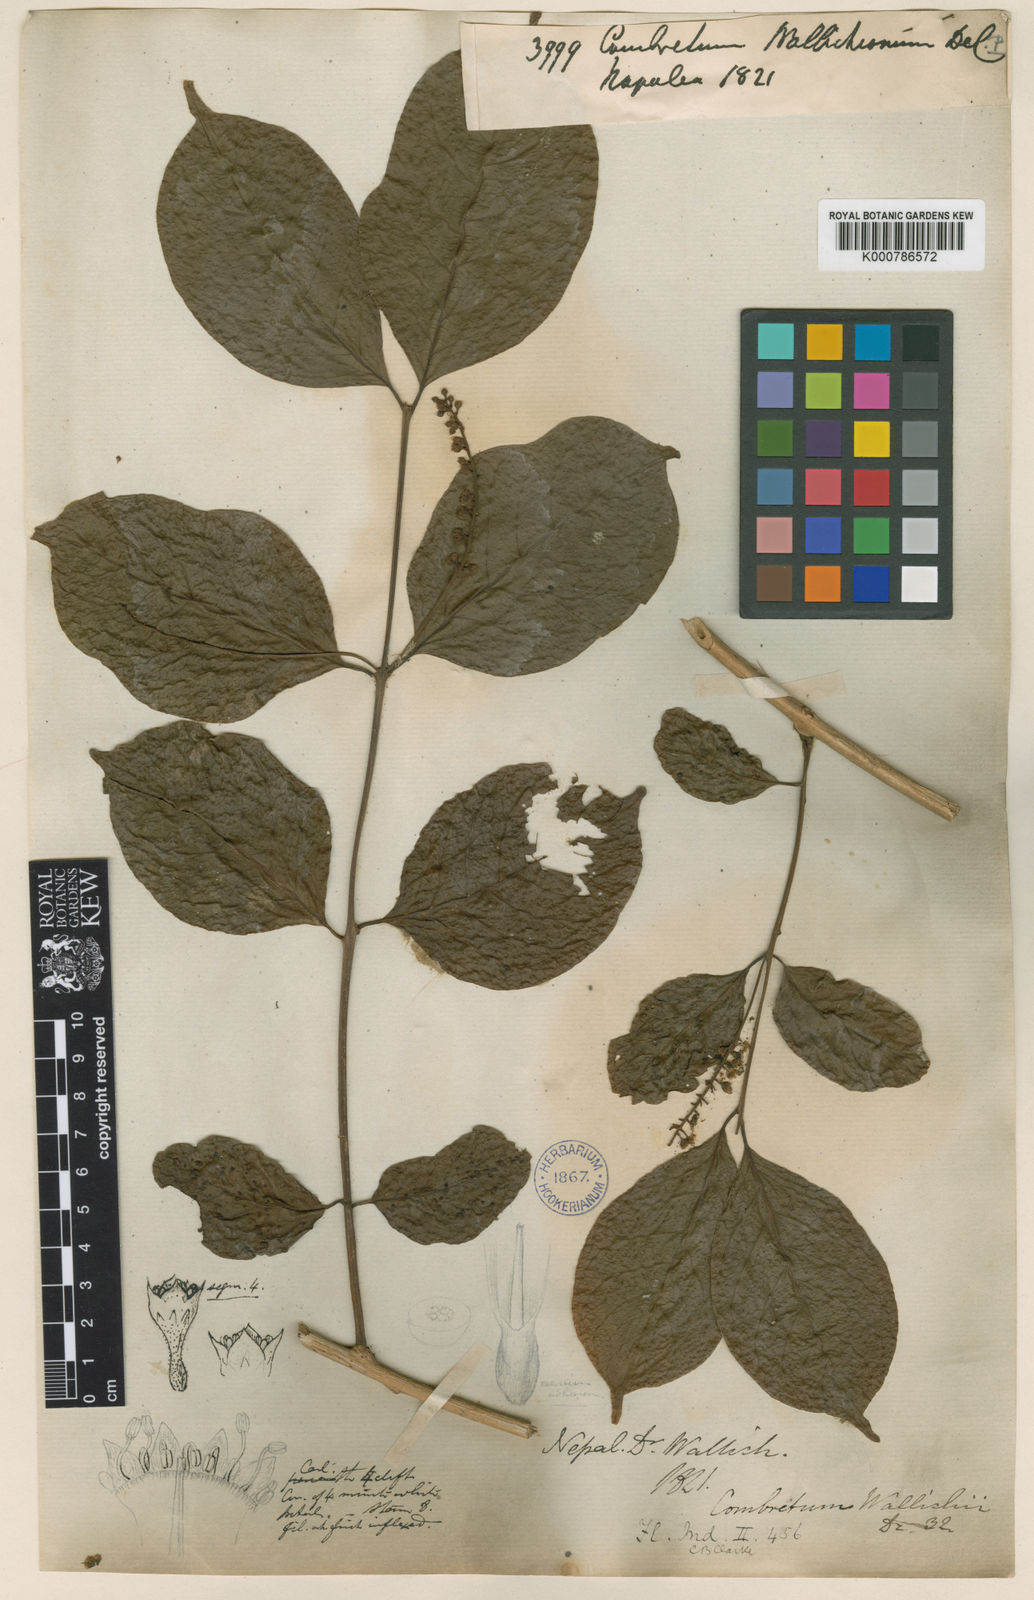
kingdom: Plantae
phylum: Tracheophyta
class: Magnoliopsida
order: Myrtales
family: Combretaceae
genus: Combretum
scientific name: Combretum wallichii
